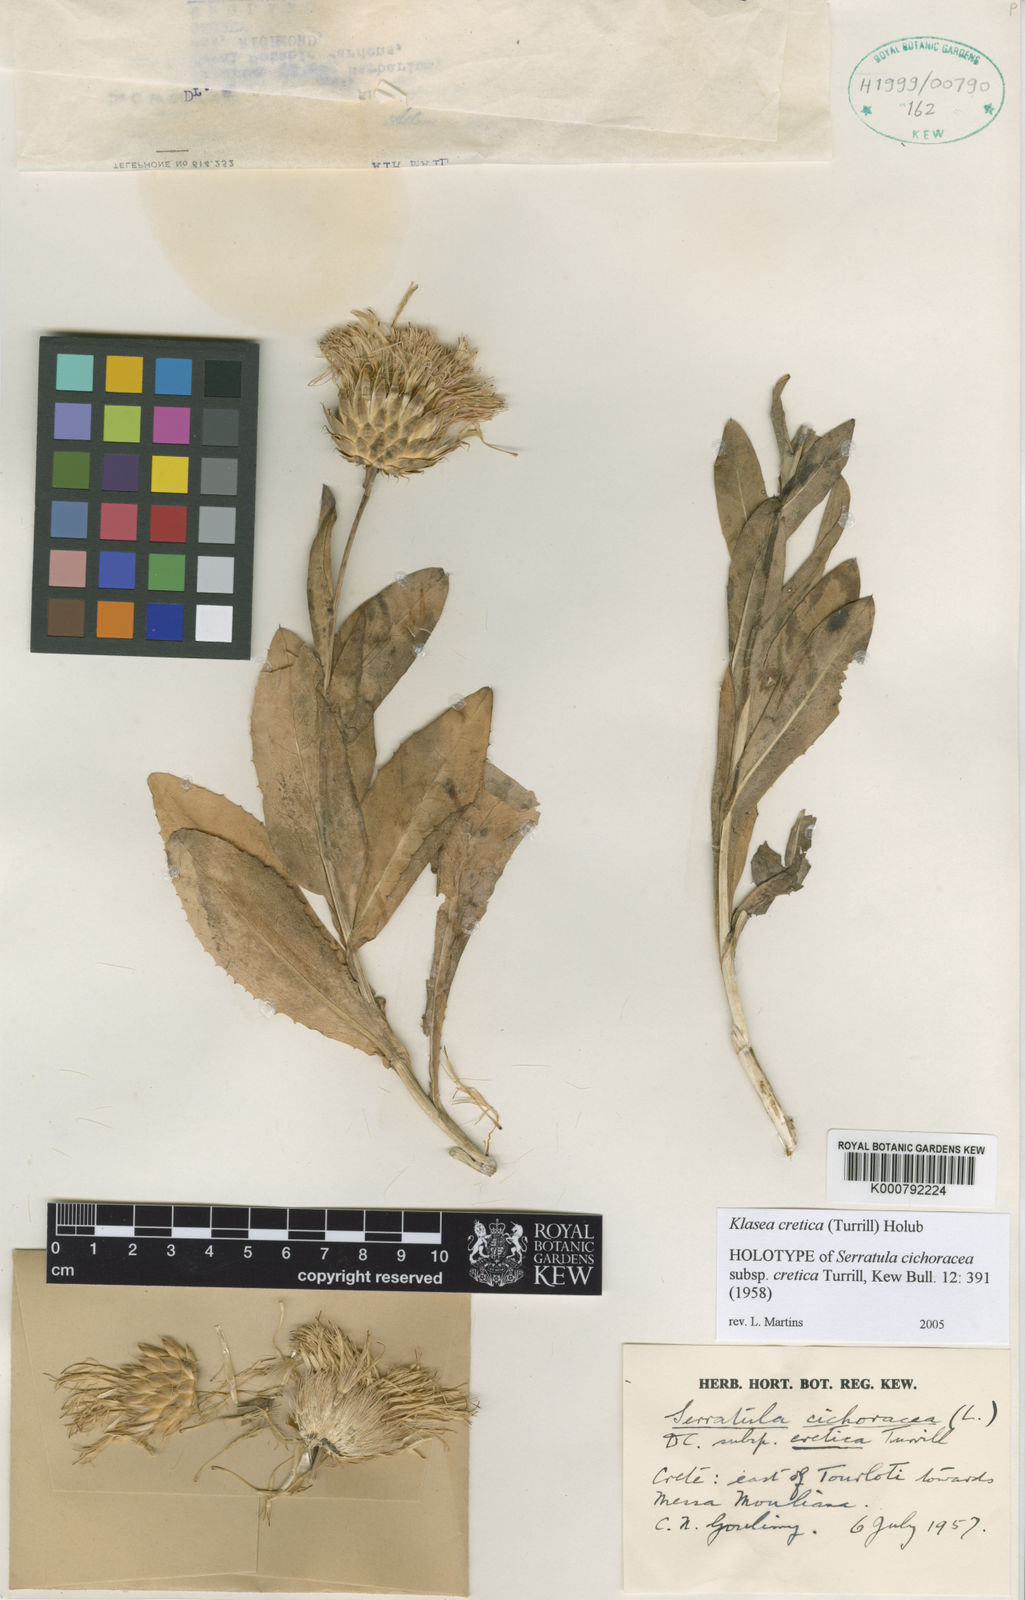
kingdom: Plantae
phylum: Tracheophyta
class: Magnoliopsida
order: Asterales
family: Asteraceae
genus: Klasea
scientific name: Klasea flavescens
